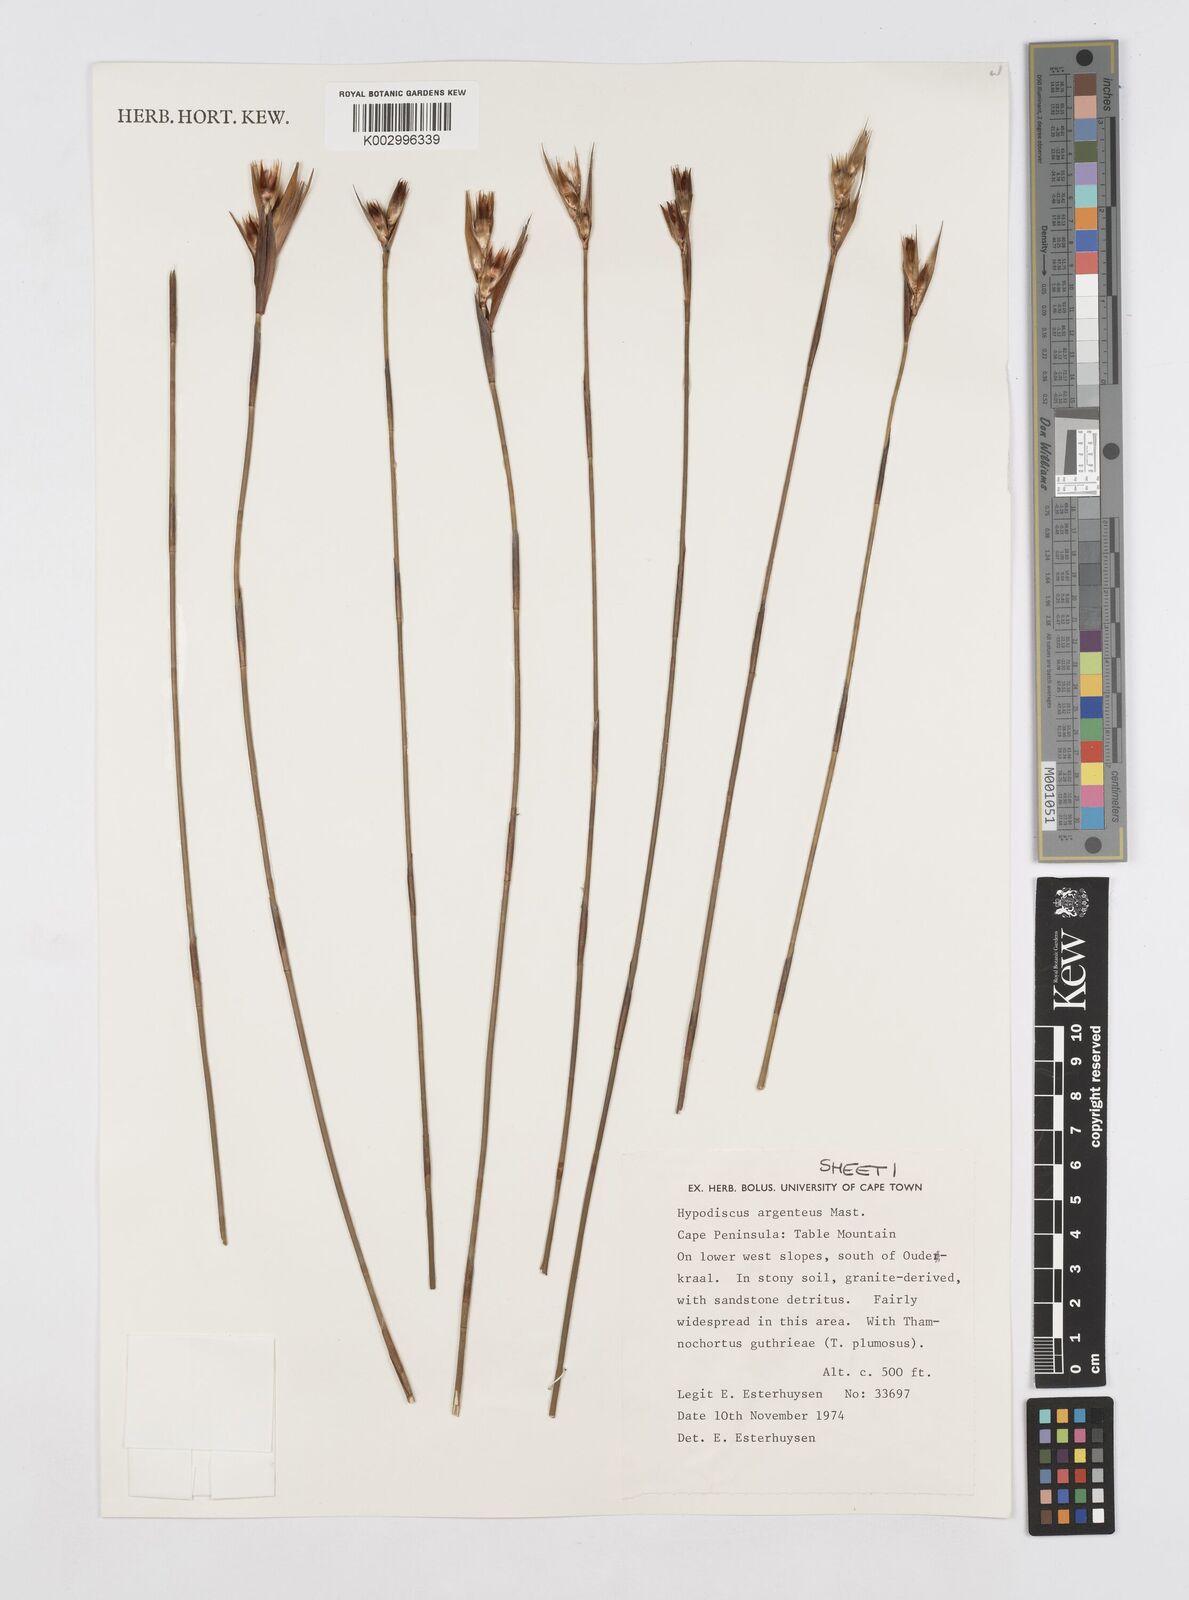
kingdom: Plantae
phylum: Tracheophyta
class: Liliopsida
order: Poales
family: Restionaceae
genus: Hypodiscus
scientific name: Hypodiscus argenteus
